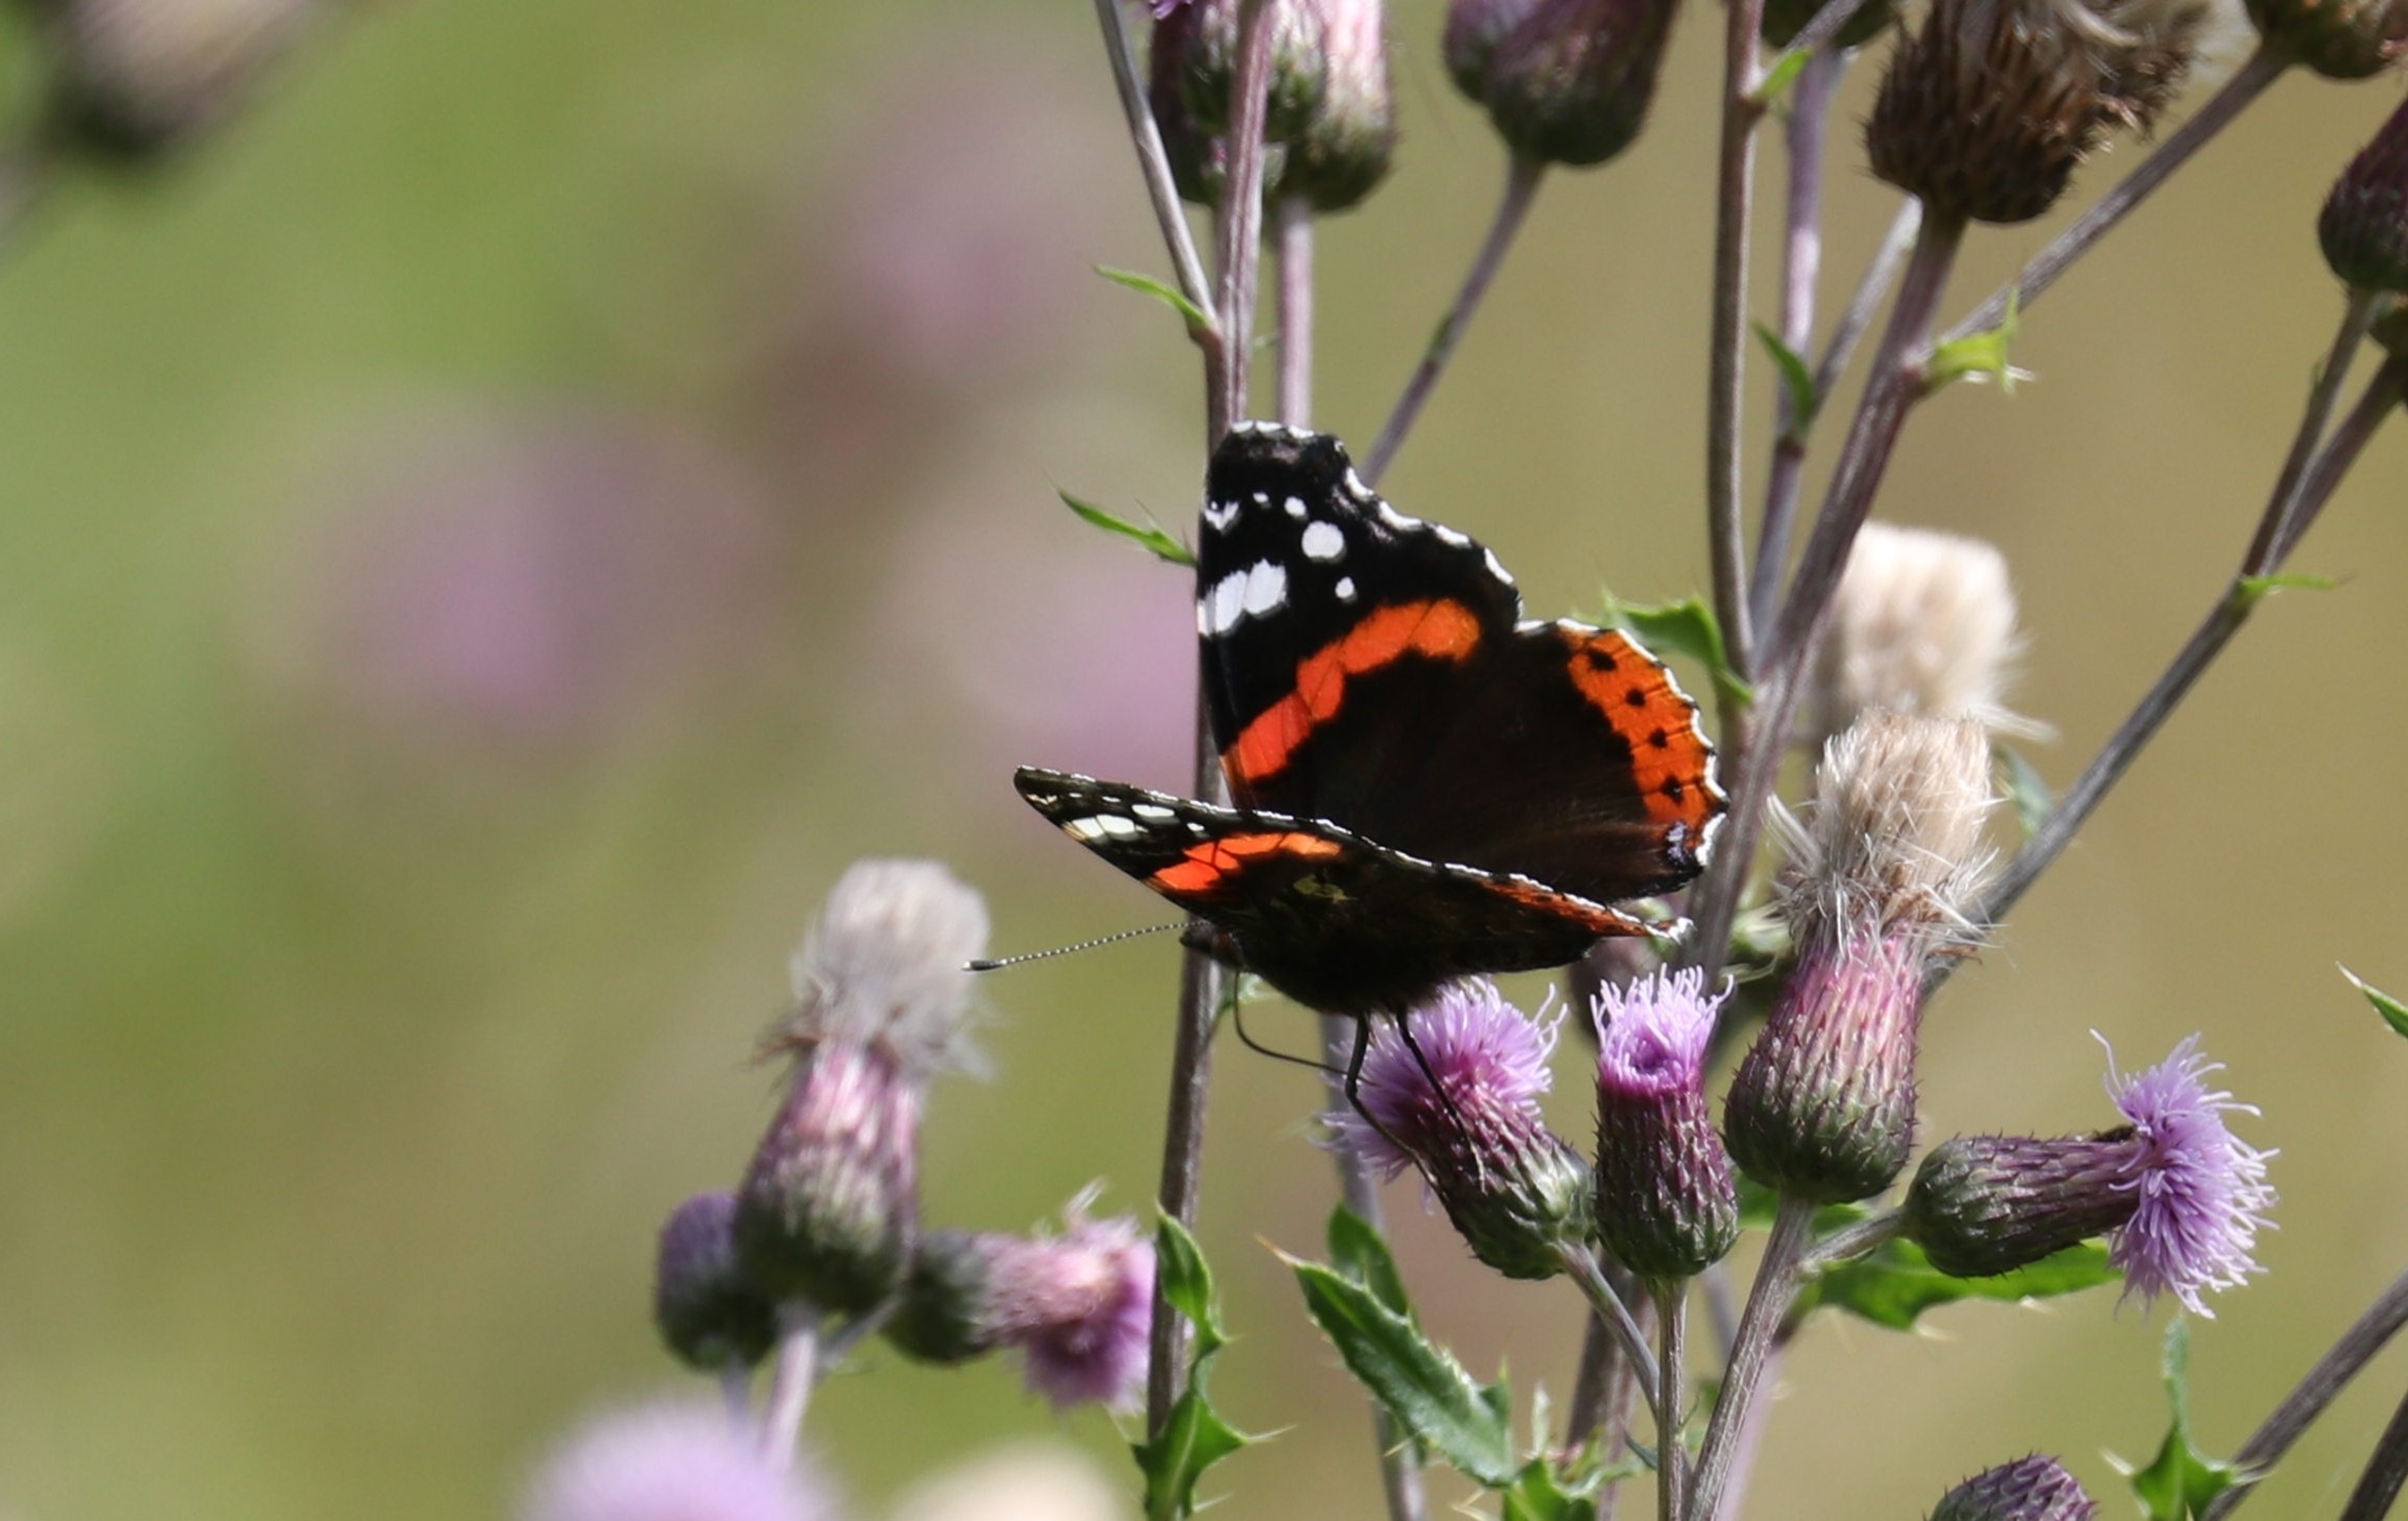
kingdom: Animalia
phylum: Arthropoda
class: Insecta
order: Lepidoptera
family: Nymphalidae
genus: Vanessa
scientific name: Vanessa atalanta
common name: Admiral
